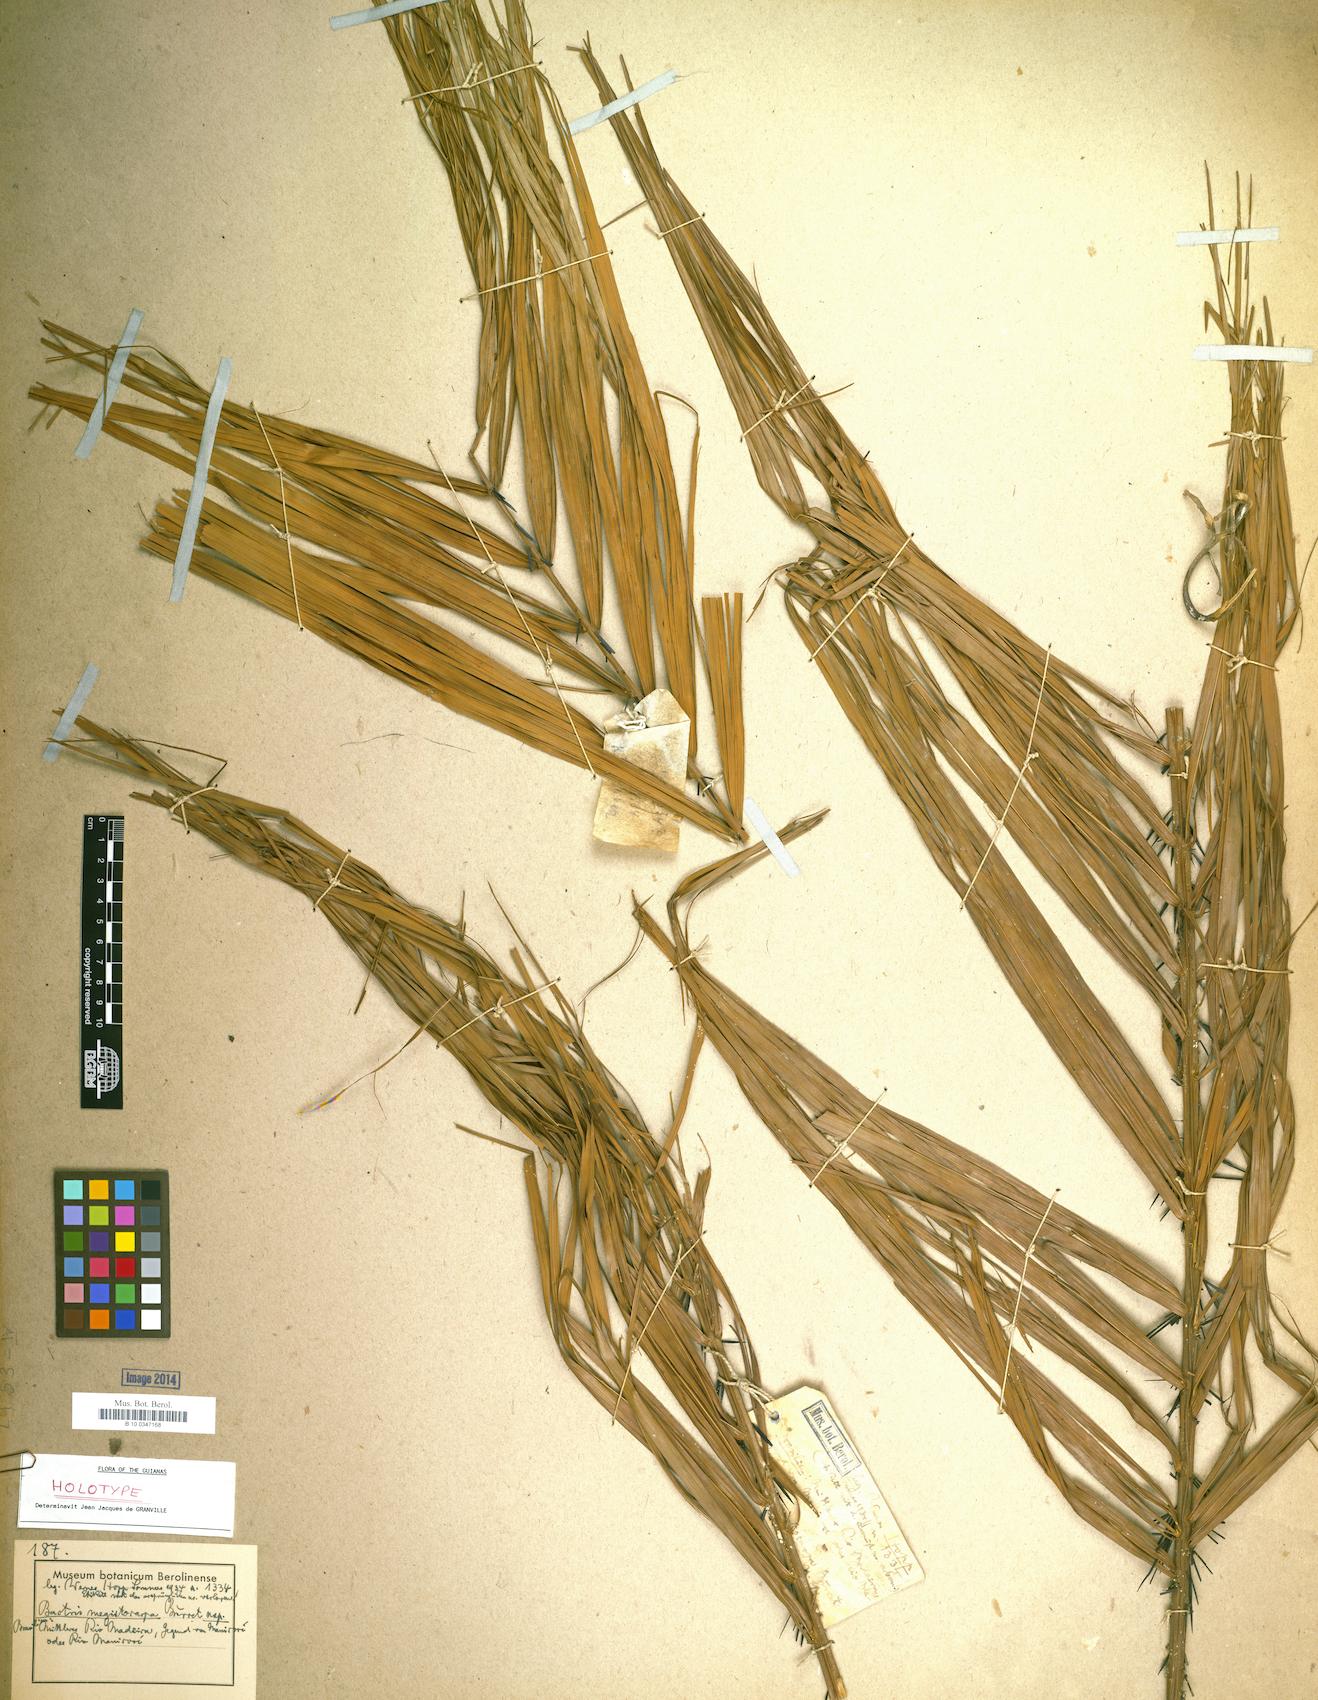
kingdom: Plantae
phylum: Tracheophyta
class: Liliopsida
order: Arecales
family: Arecaceae
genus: Bactris
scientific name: Bactris megistocarpa
